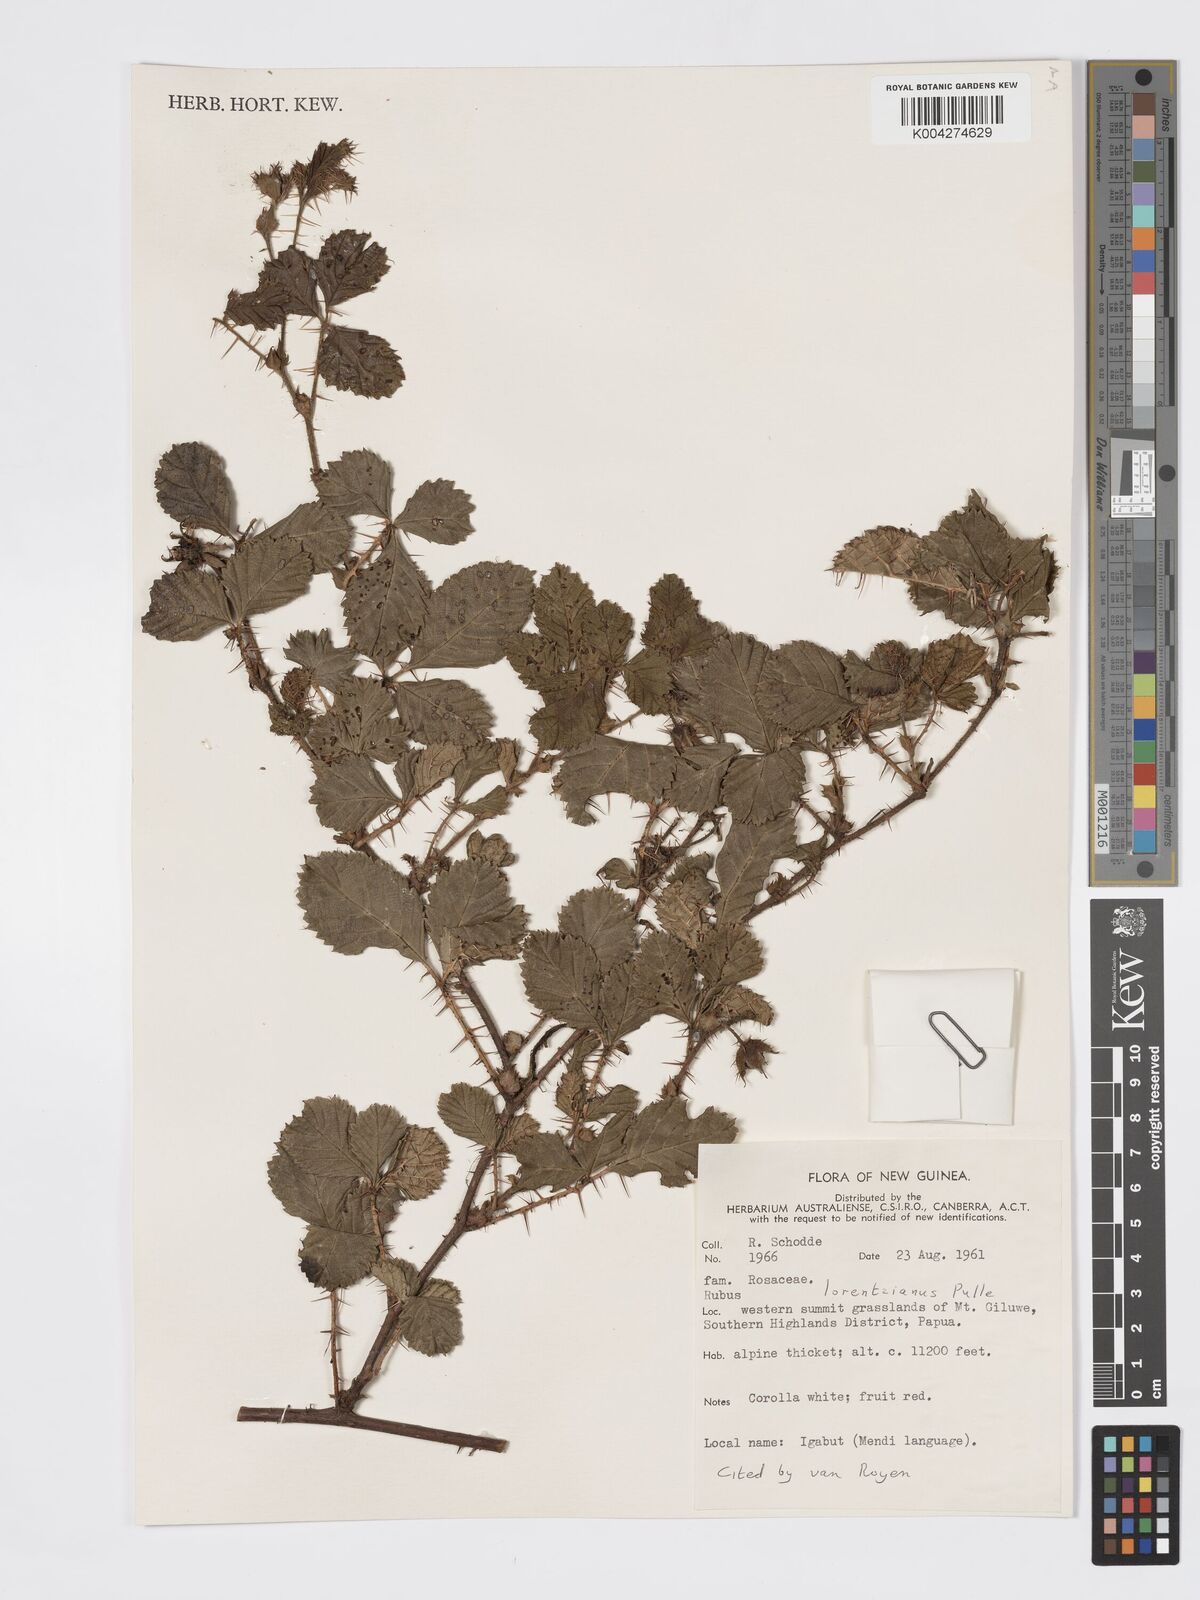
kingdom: Plantae
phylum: Tracheophyta
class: Magnoliopsida
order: Rosales
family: Rosaceae
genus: Rubus
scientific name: Rubus lorentzianus
